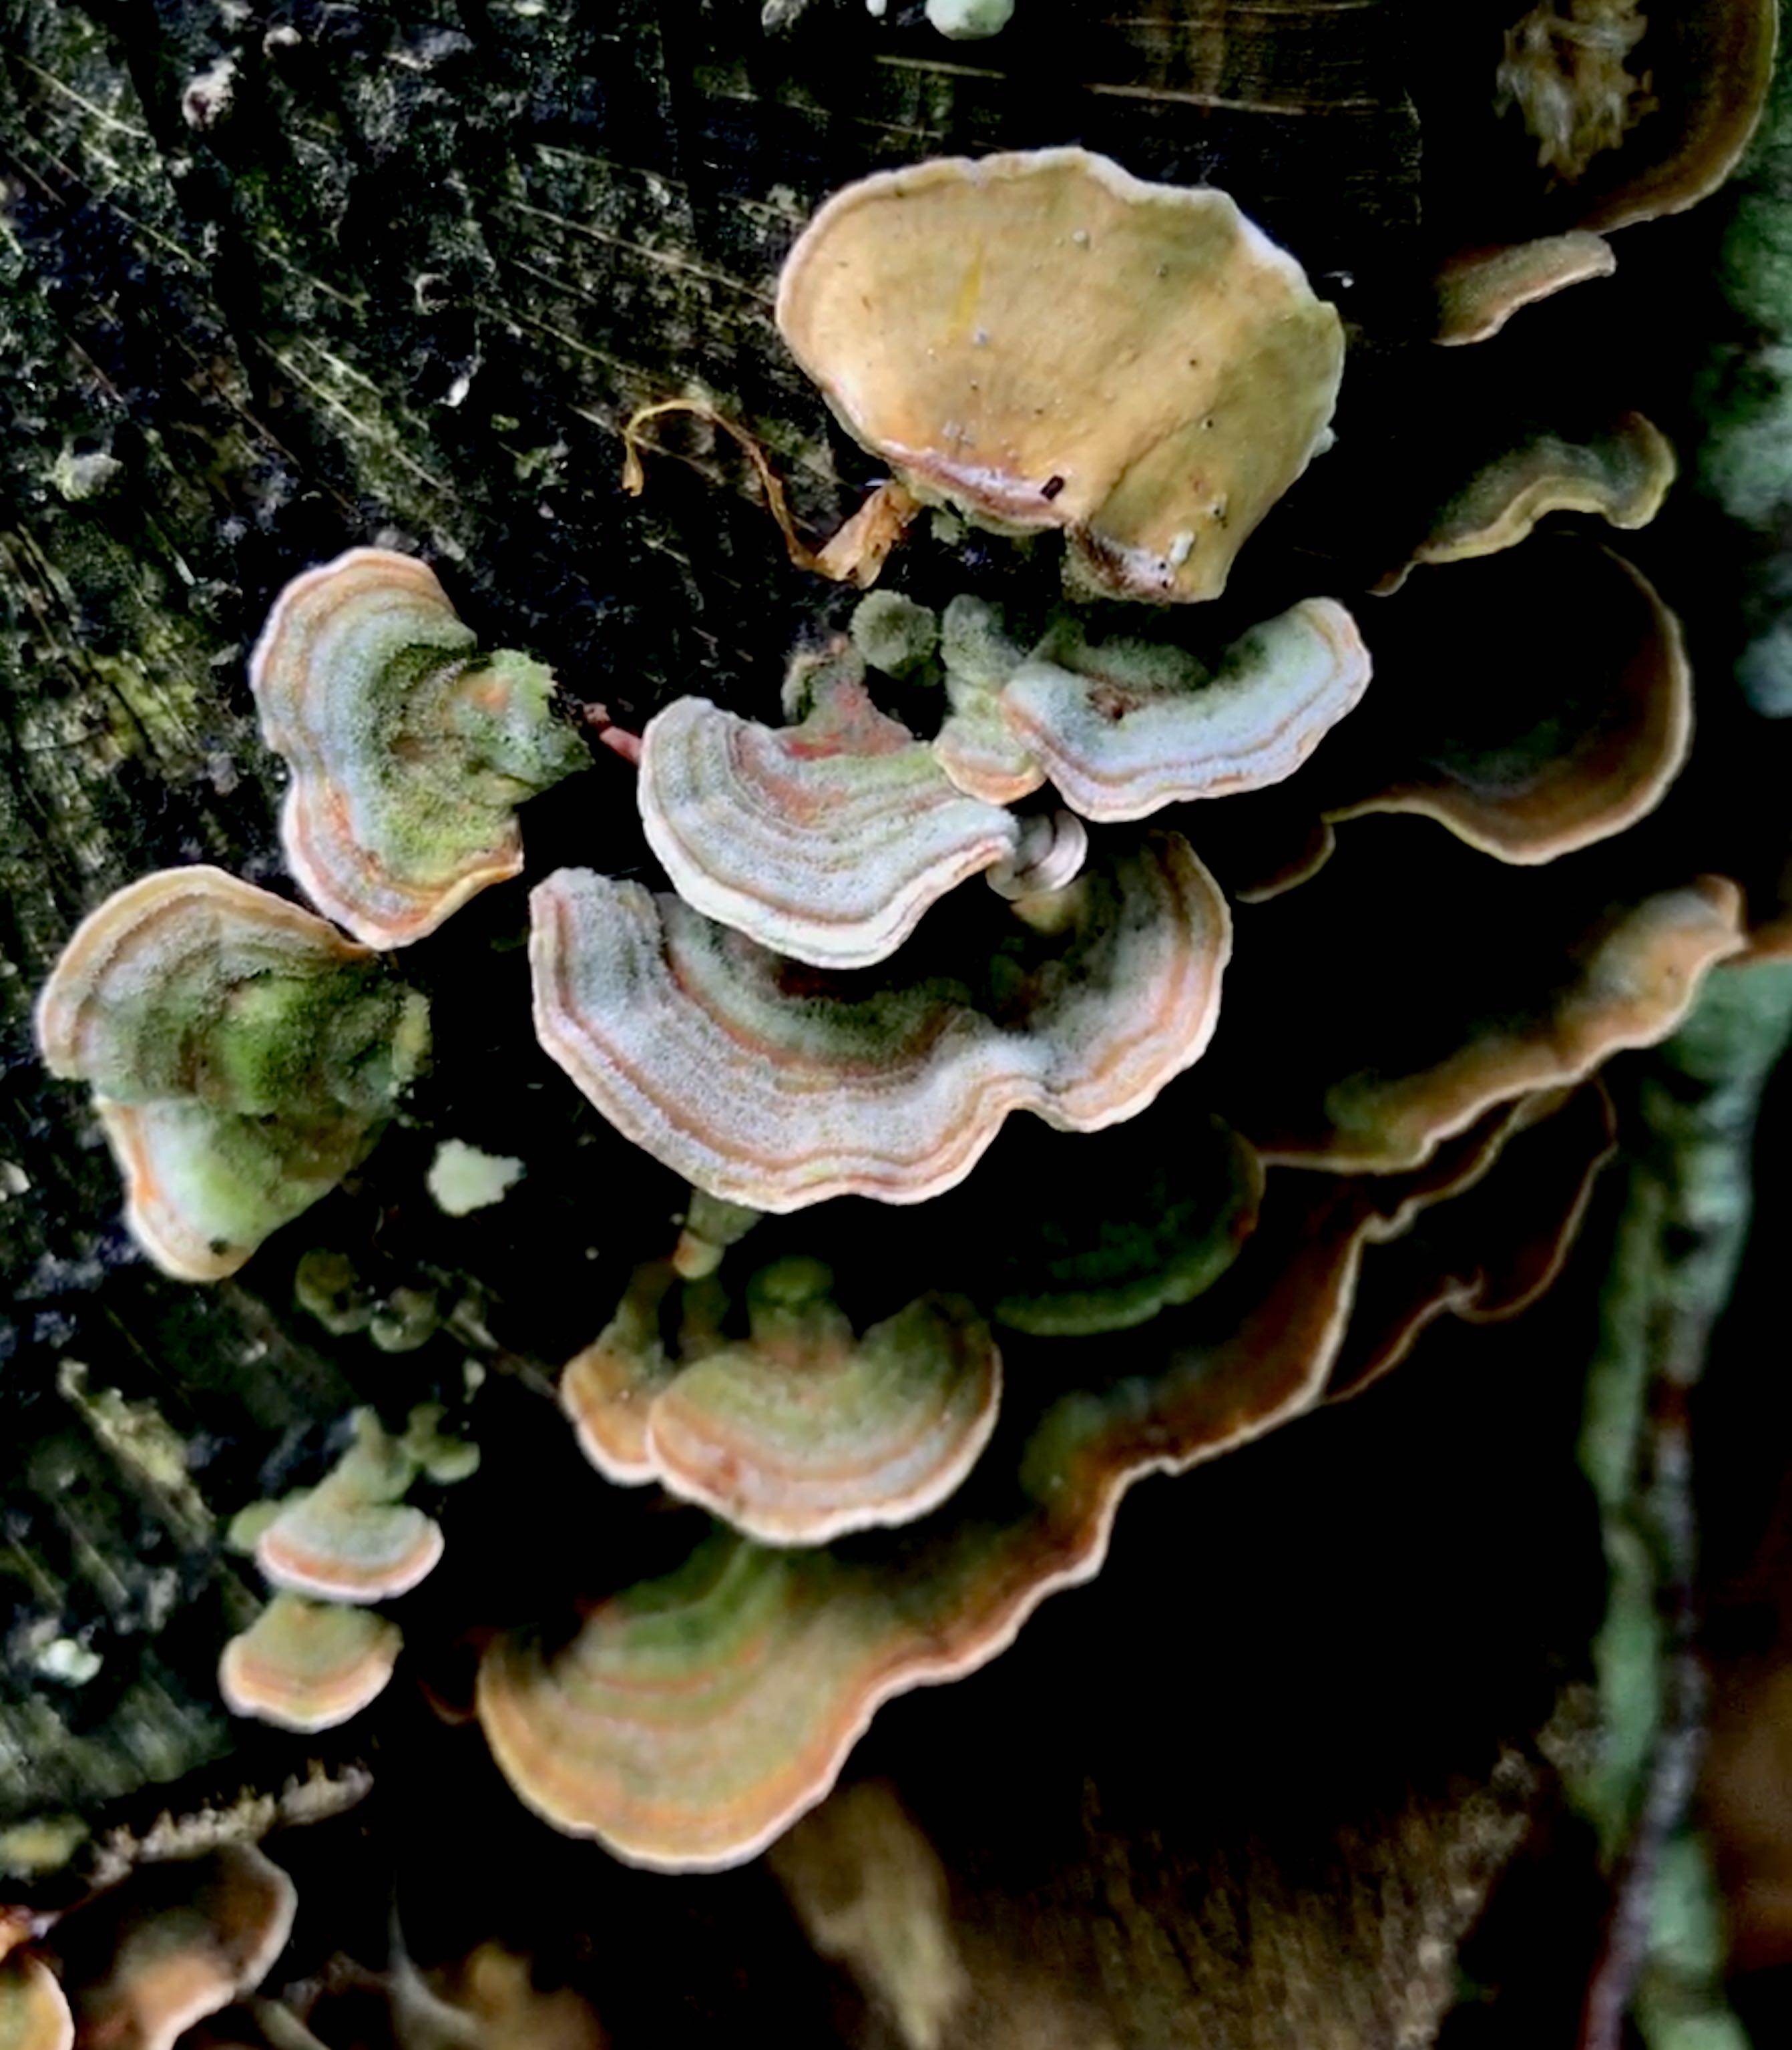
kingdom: Fungi
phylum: Basidiomycota
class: Agaricomycetes
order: Russulales
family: Stereaceae
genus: Stereum
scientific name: Stereum hirsutum
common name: håret lædersvamp
